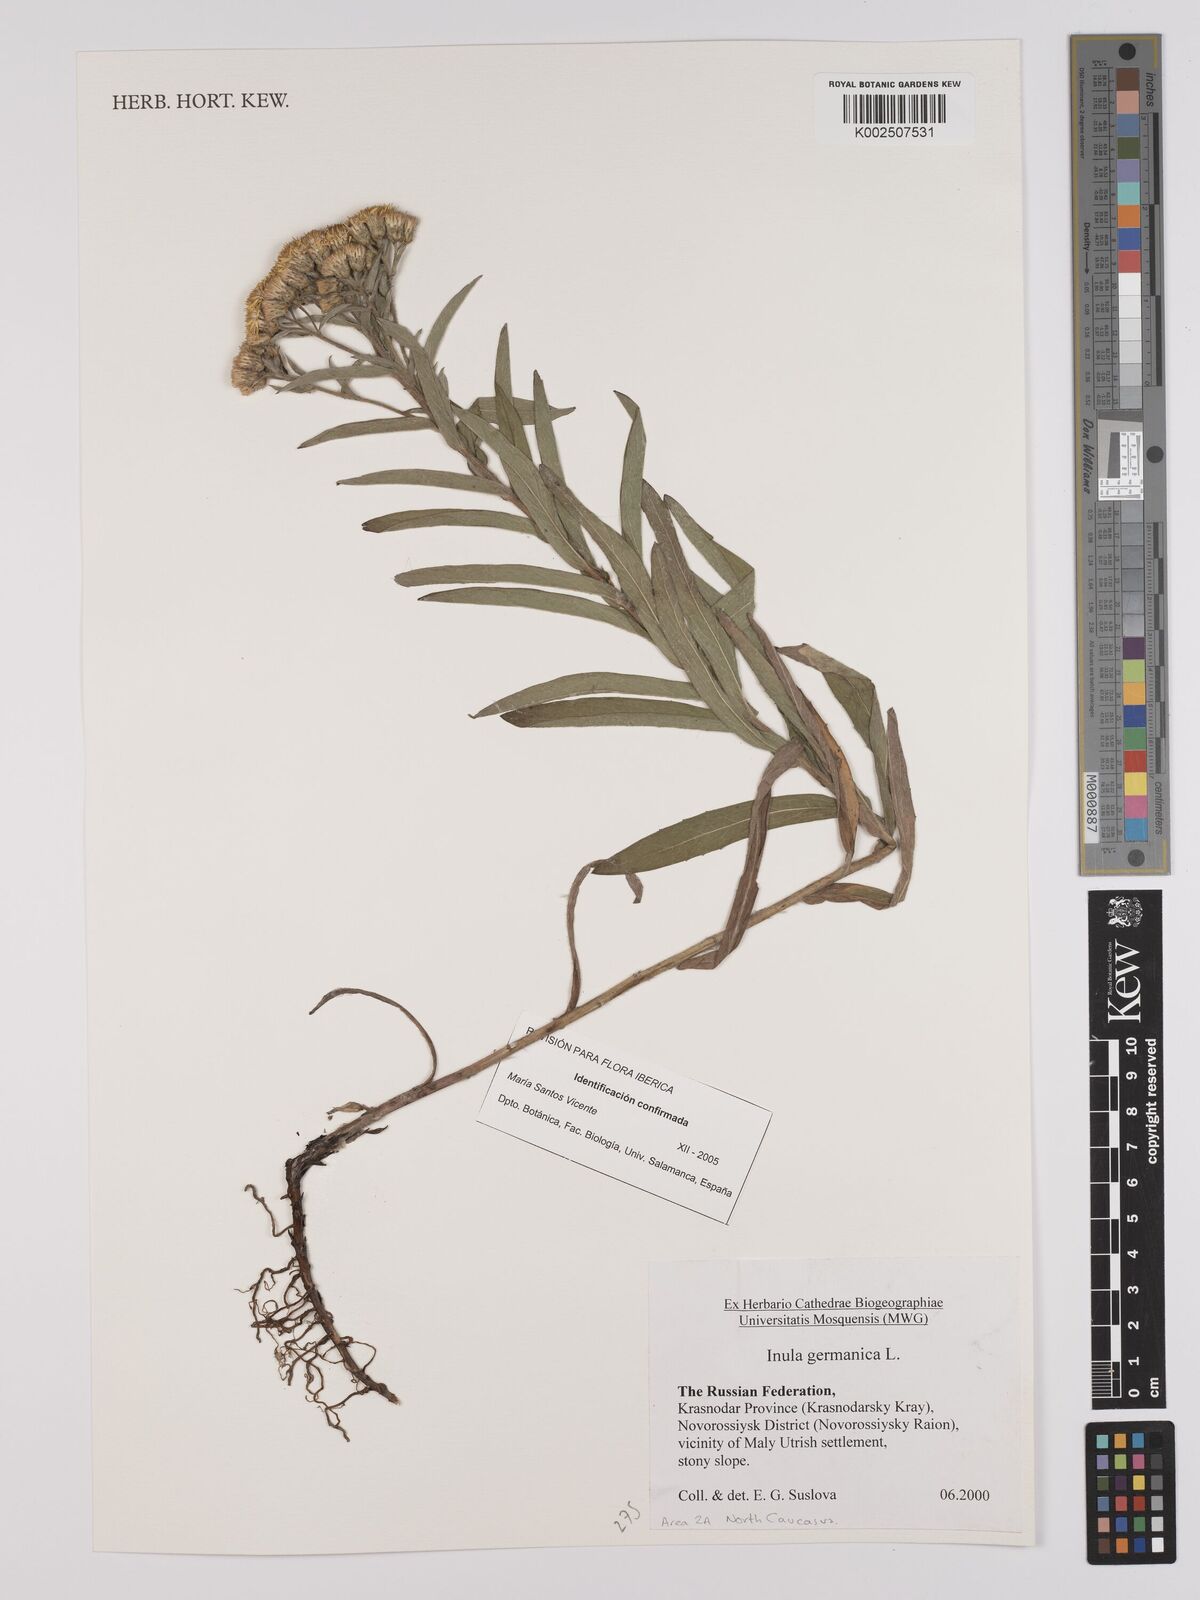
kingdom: Plantae
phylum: Tracheophyta
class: Magnoliopsida
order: Asterales
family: Asteraceae
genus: Pentanema
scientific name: Pentanema germanicum
